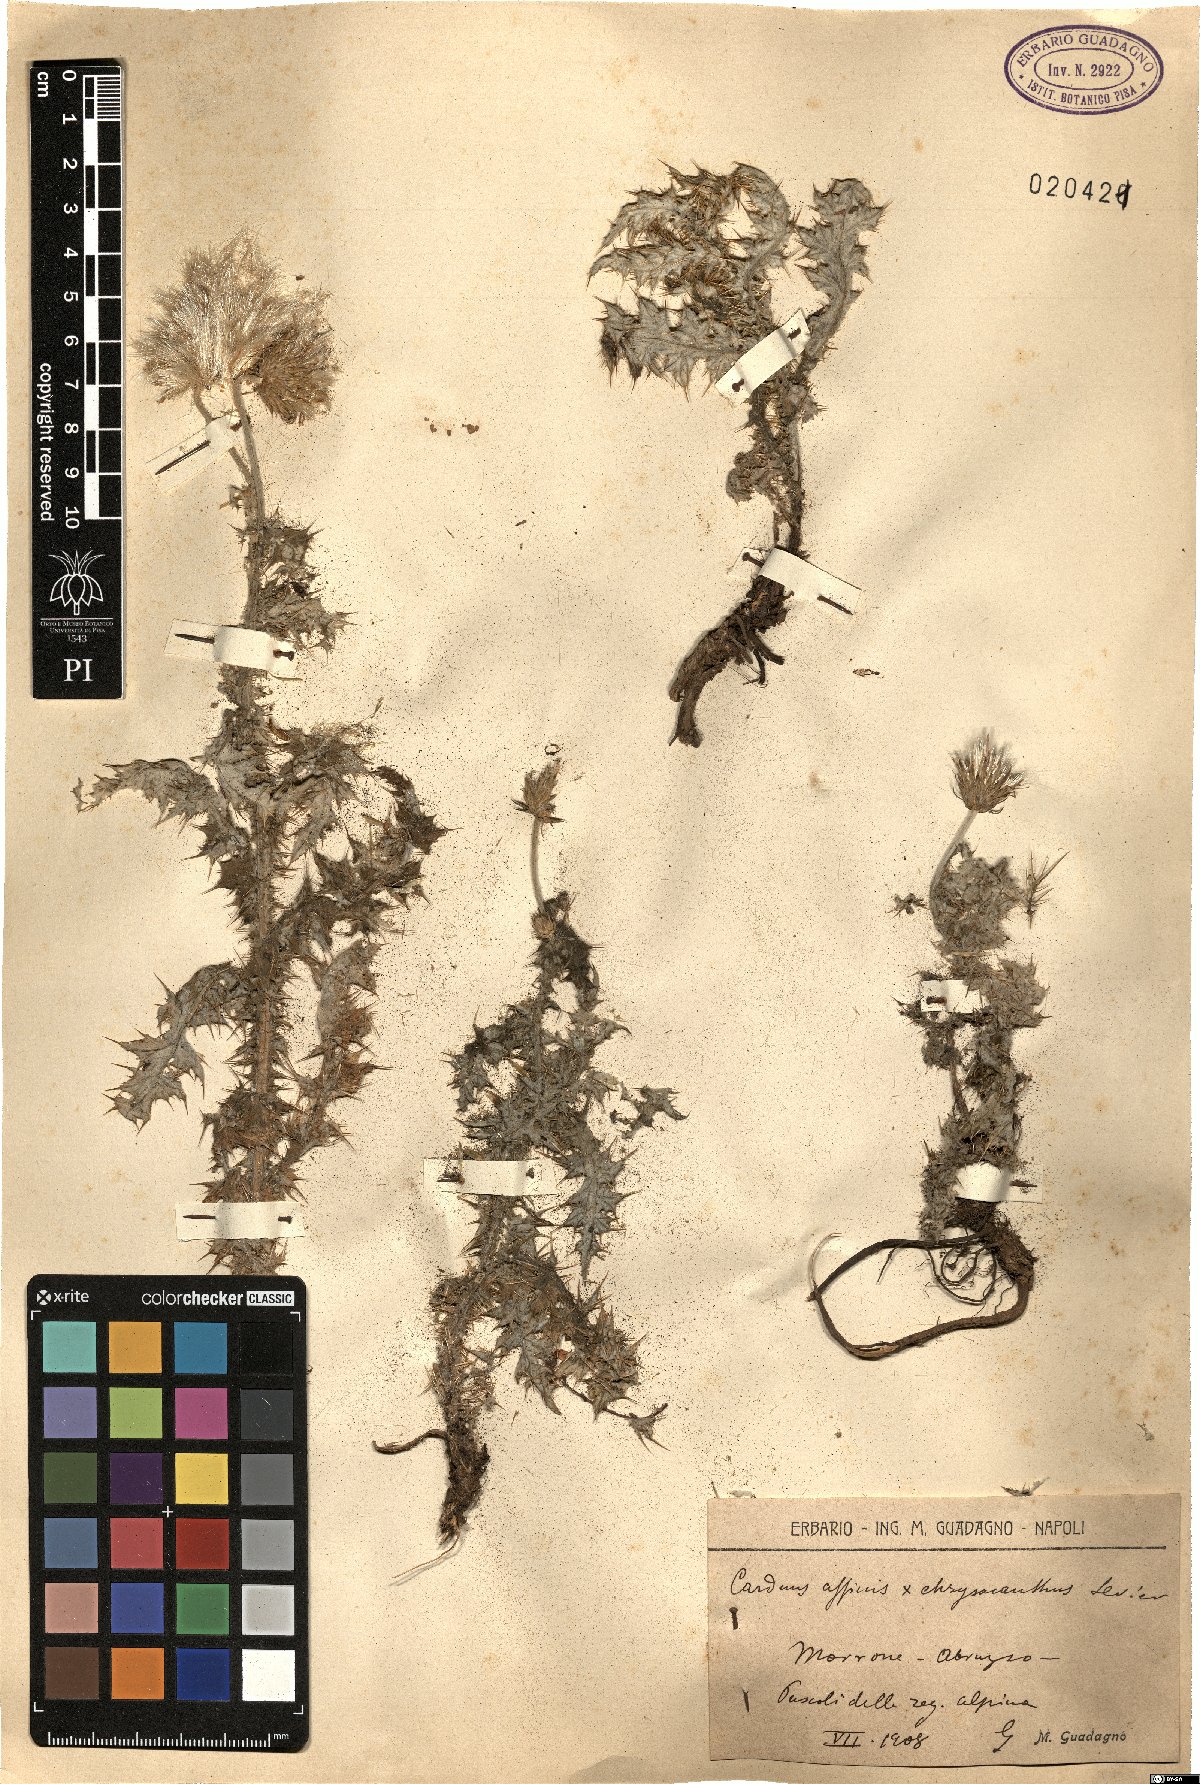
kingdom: Plantae
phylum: Tracheophyta
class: Magnoliopsida
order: Asterales
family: Asteraceae
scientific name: Asteraceae
